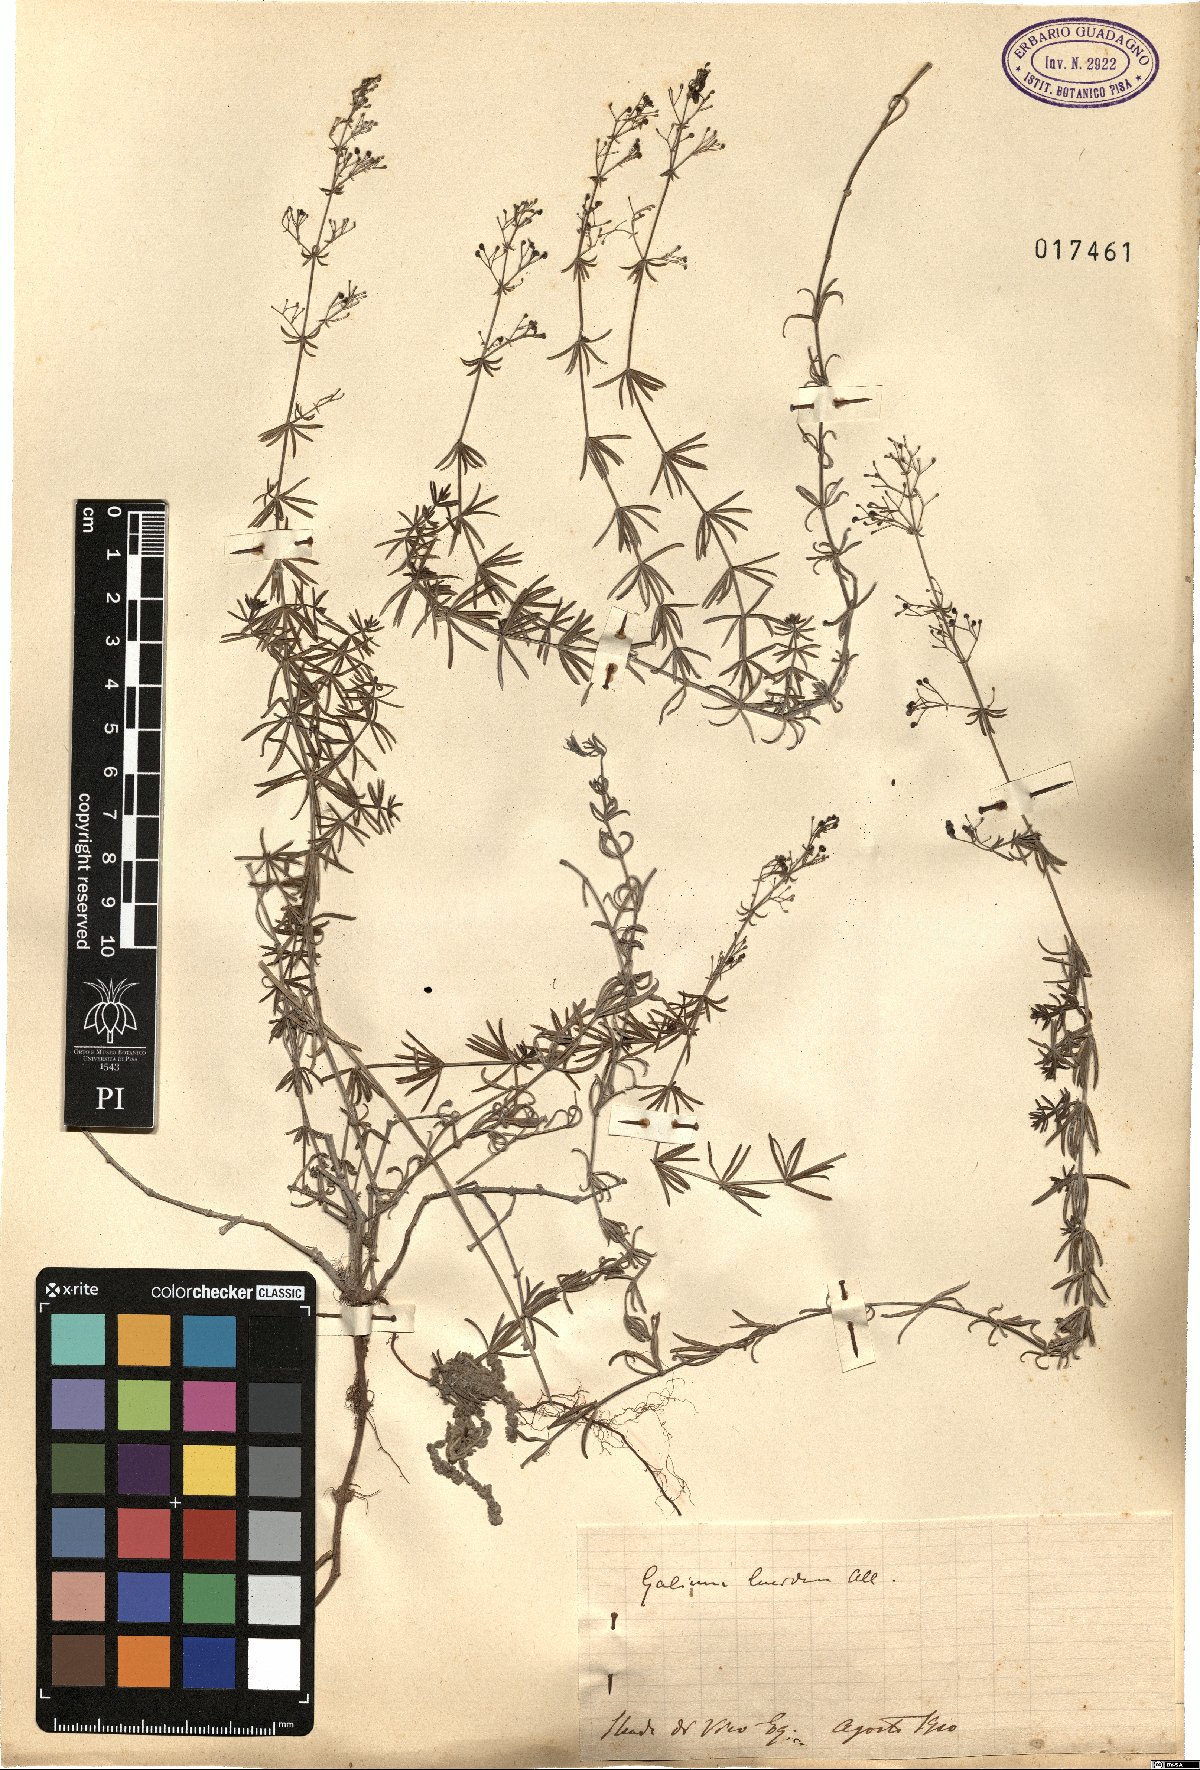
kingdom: Plantae
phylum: Tracheophyta
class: Magnoliopsida
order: Gentianales
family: Rubiaceae
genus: Galium
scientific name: Galium lucidum
